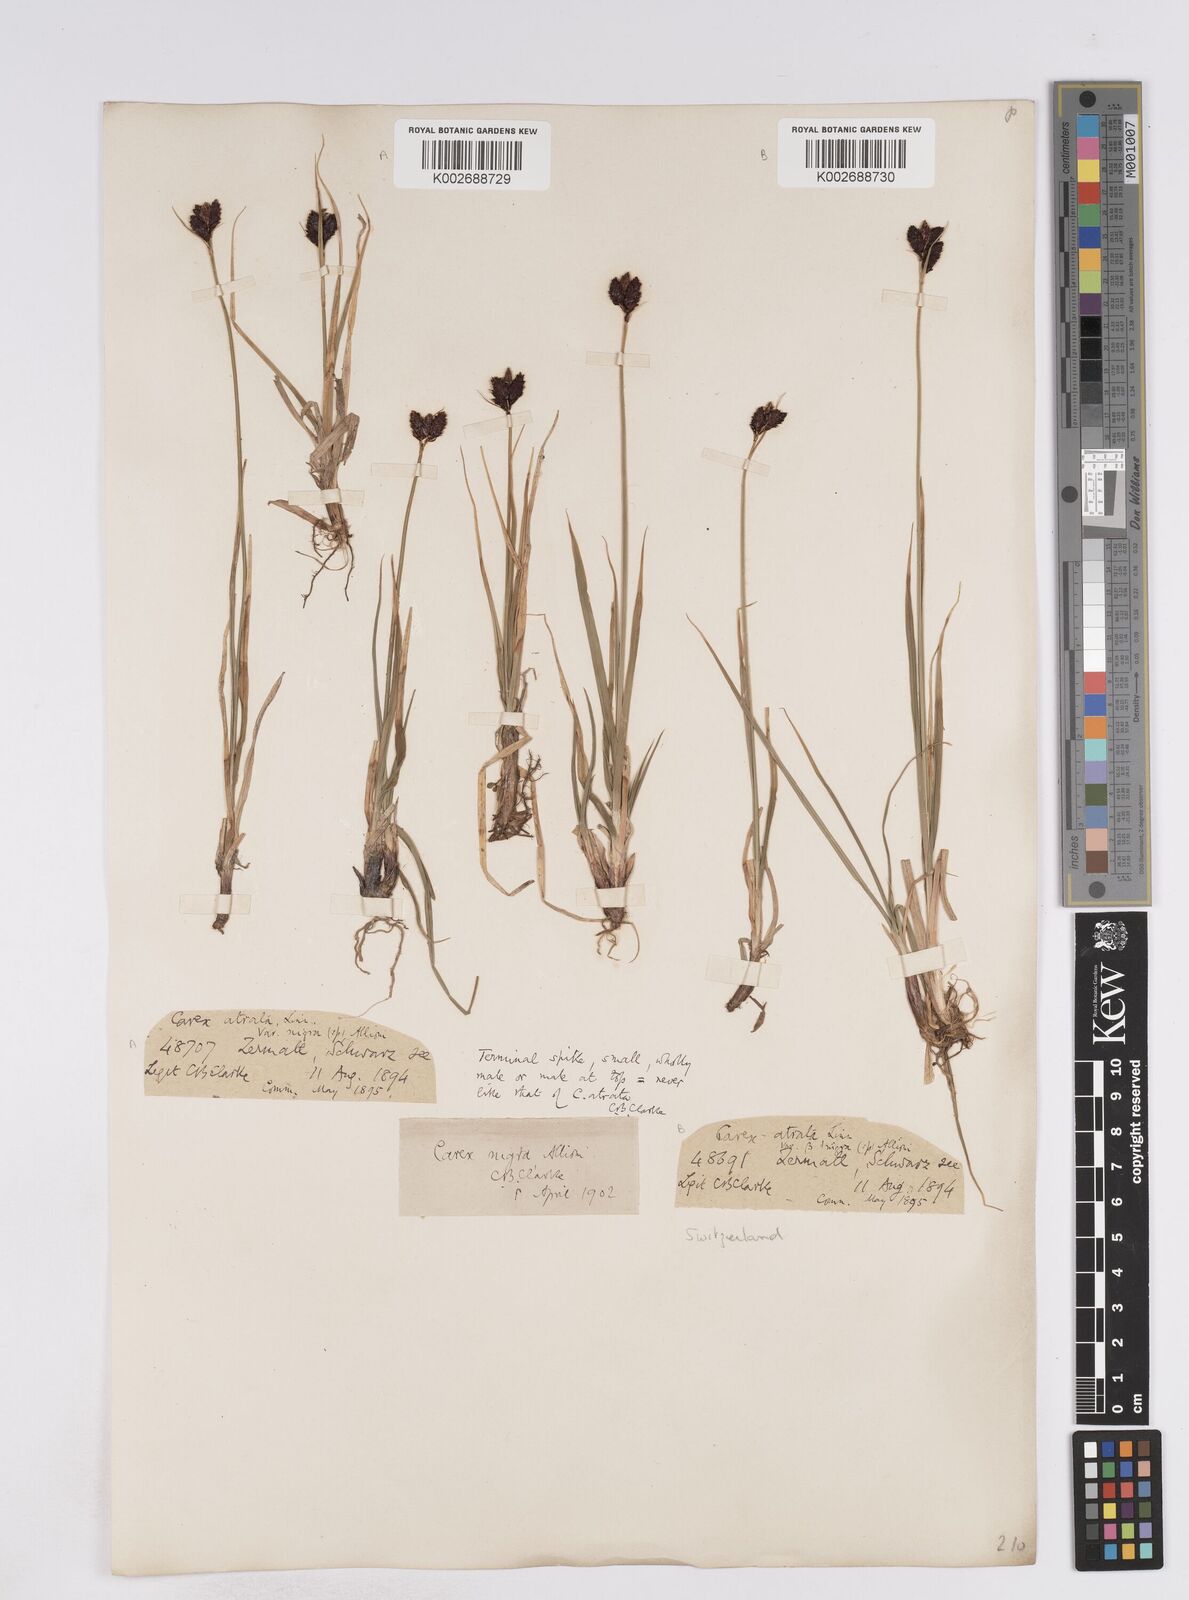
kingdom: Plantae
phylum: Tracheophyta
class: Liliopsida
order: Poales
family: Cyperaceae
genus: Carex
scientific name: Carex parviflora
